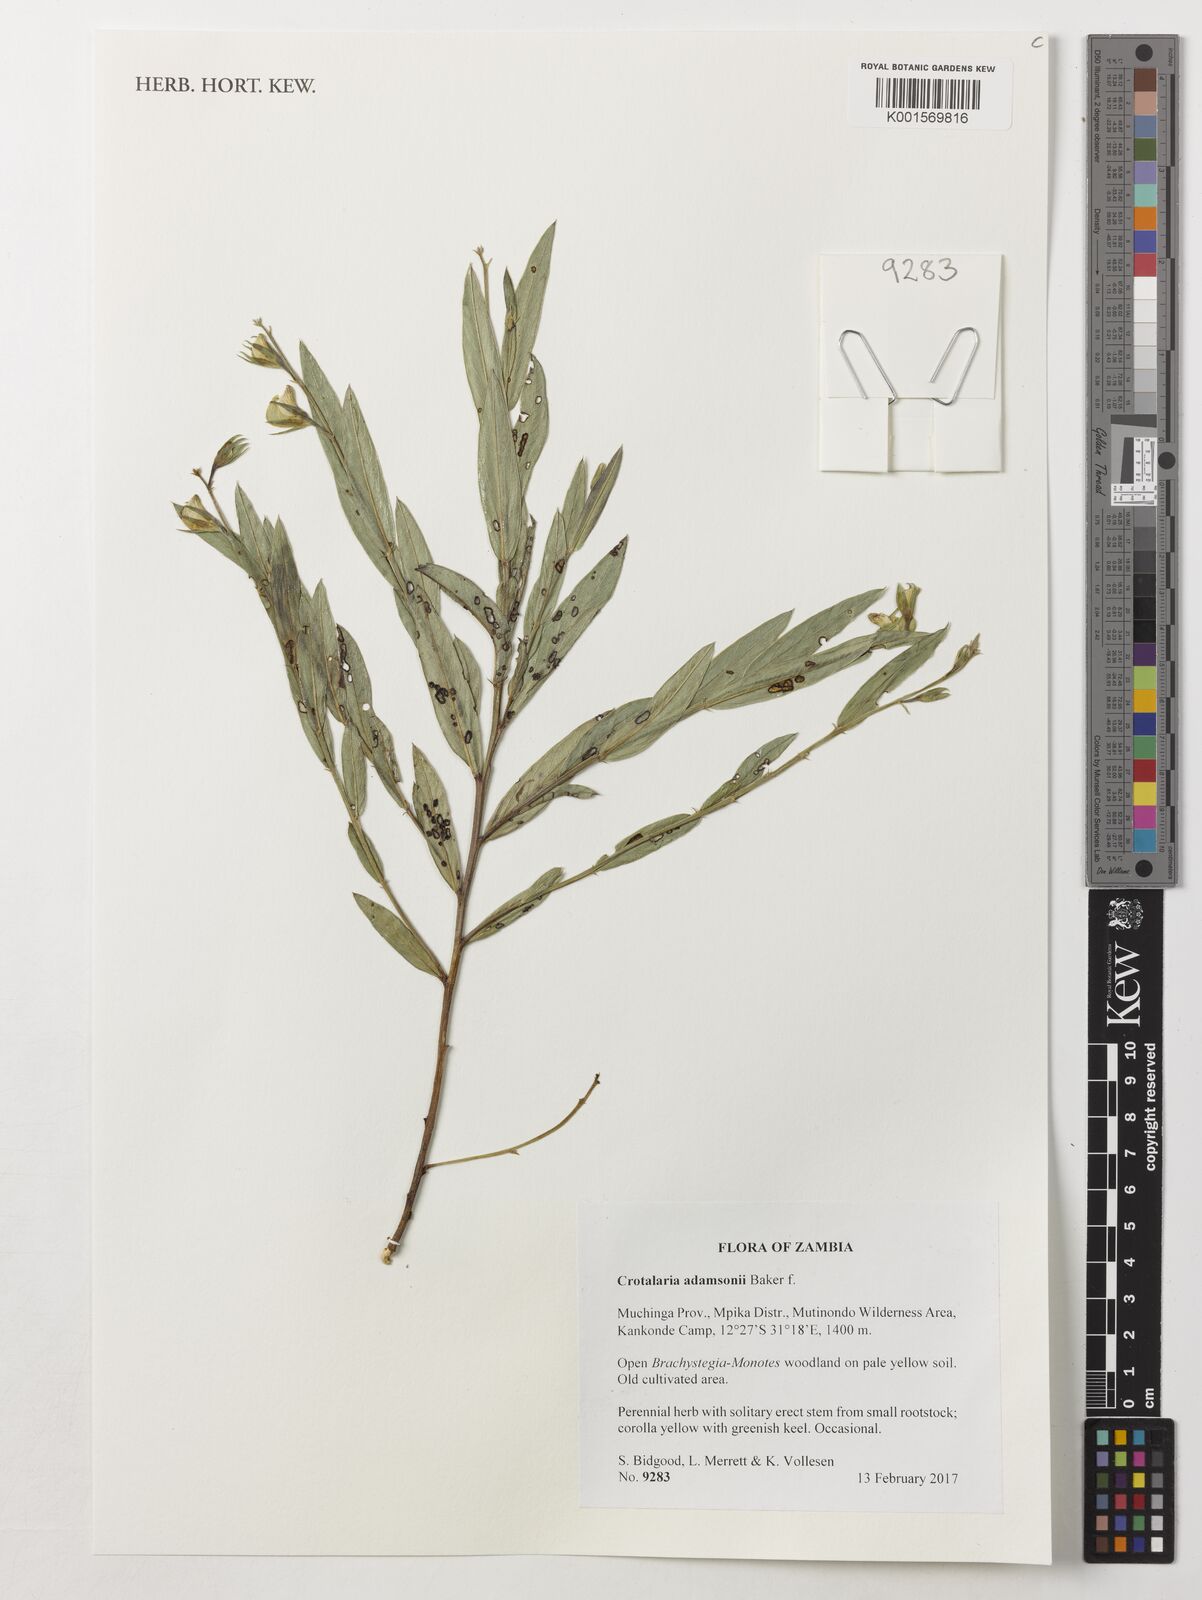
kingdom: Plantae
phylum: Tracheophyta
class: Magnoliopsida
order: Fabales
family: Fabaceae
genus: Crotalaria
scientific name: Crotalaria adamsonii
